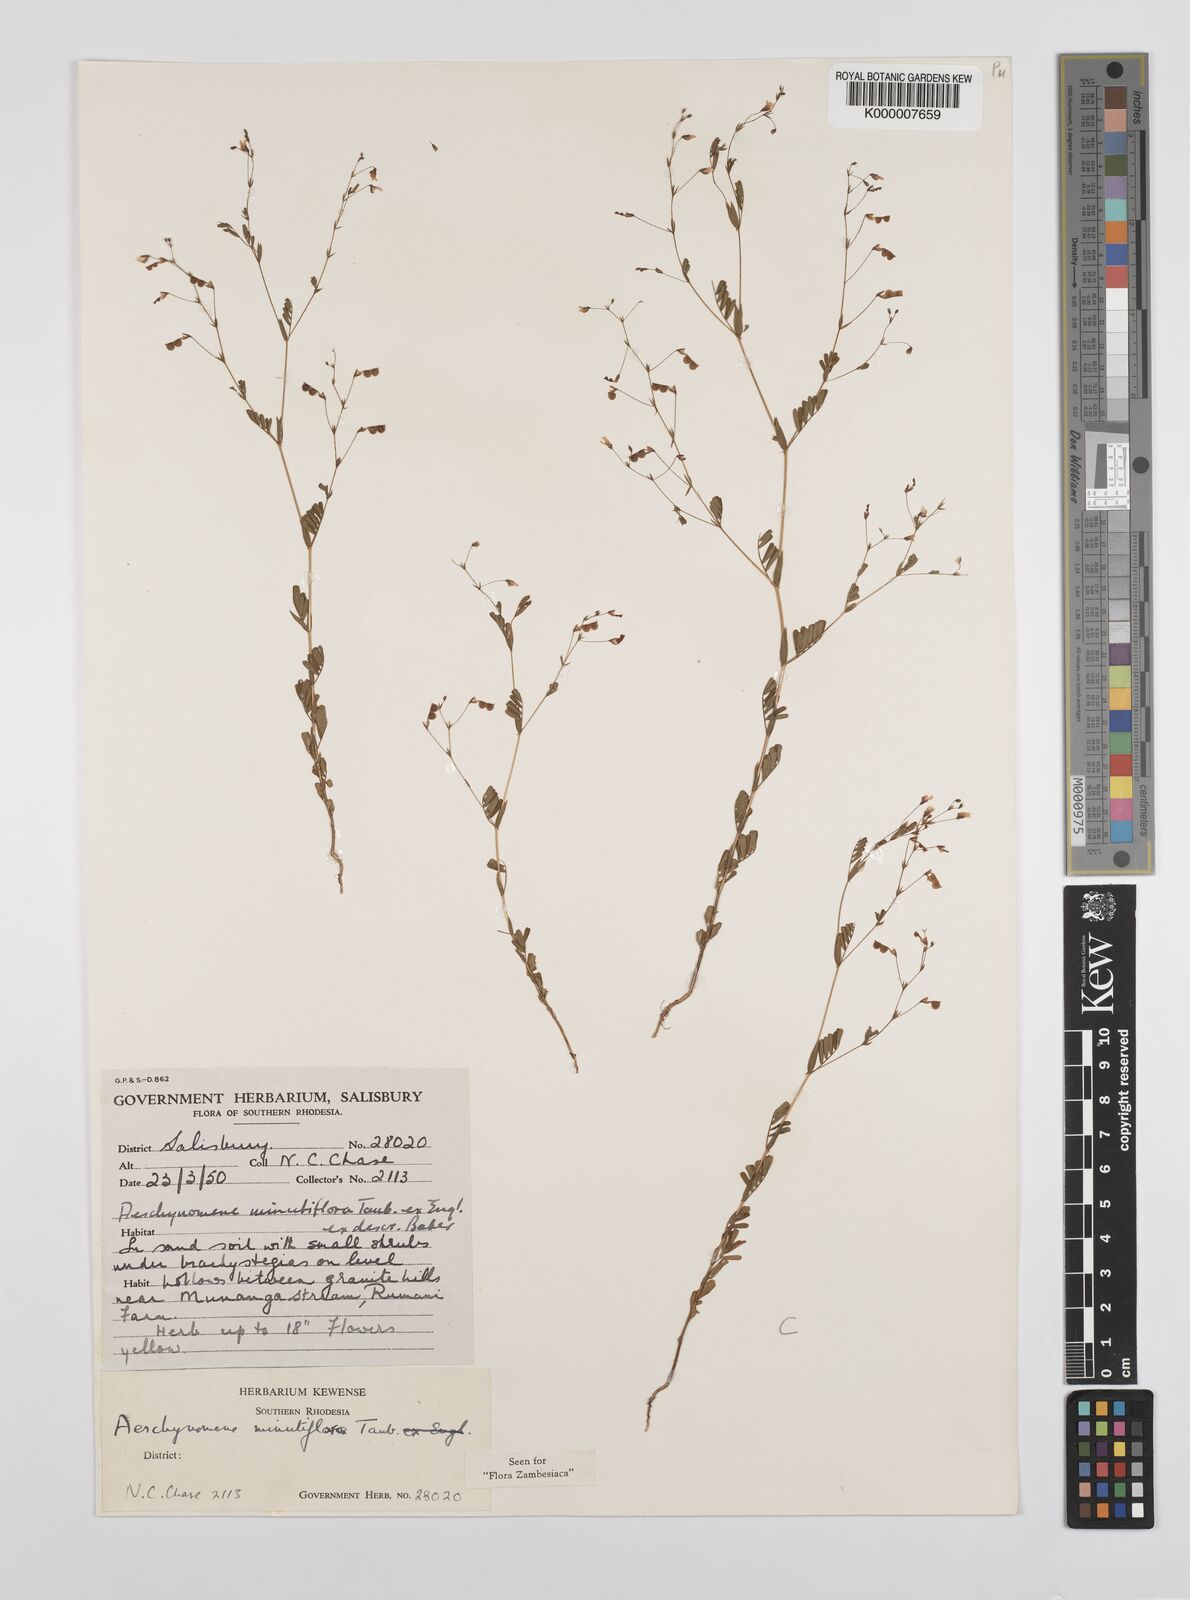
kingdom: Plantae
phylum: Tracheophyta
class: Magnoliopsida
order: Fabales
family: Fabaceae
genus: Aeschynomene
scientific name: Aeschynomene minutiflora
